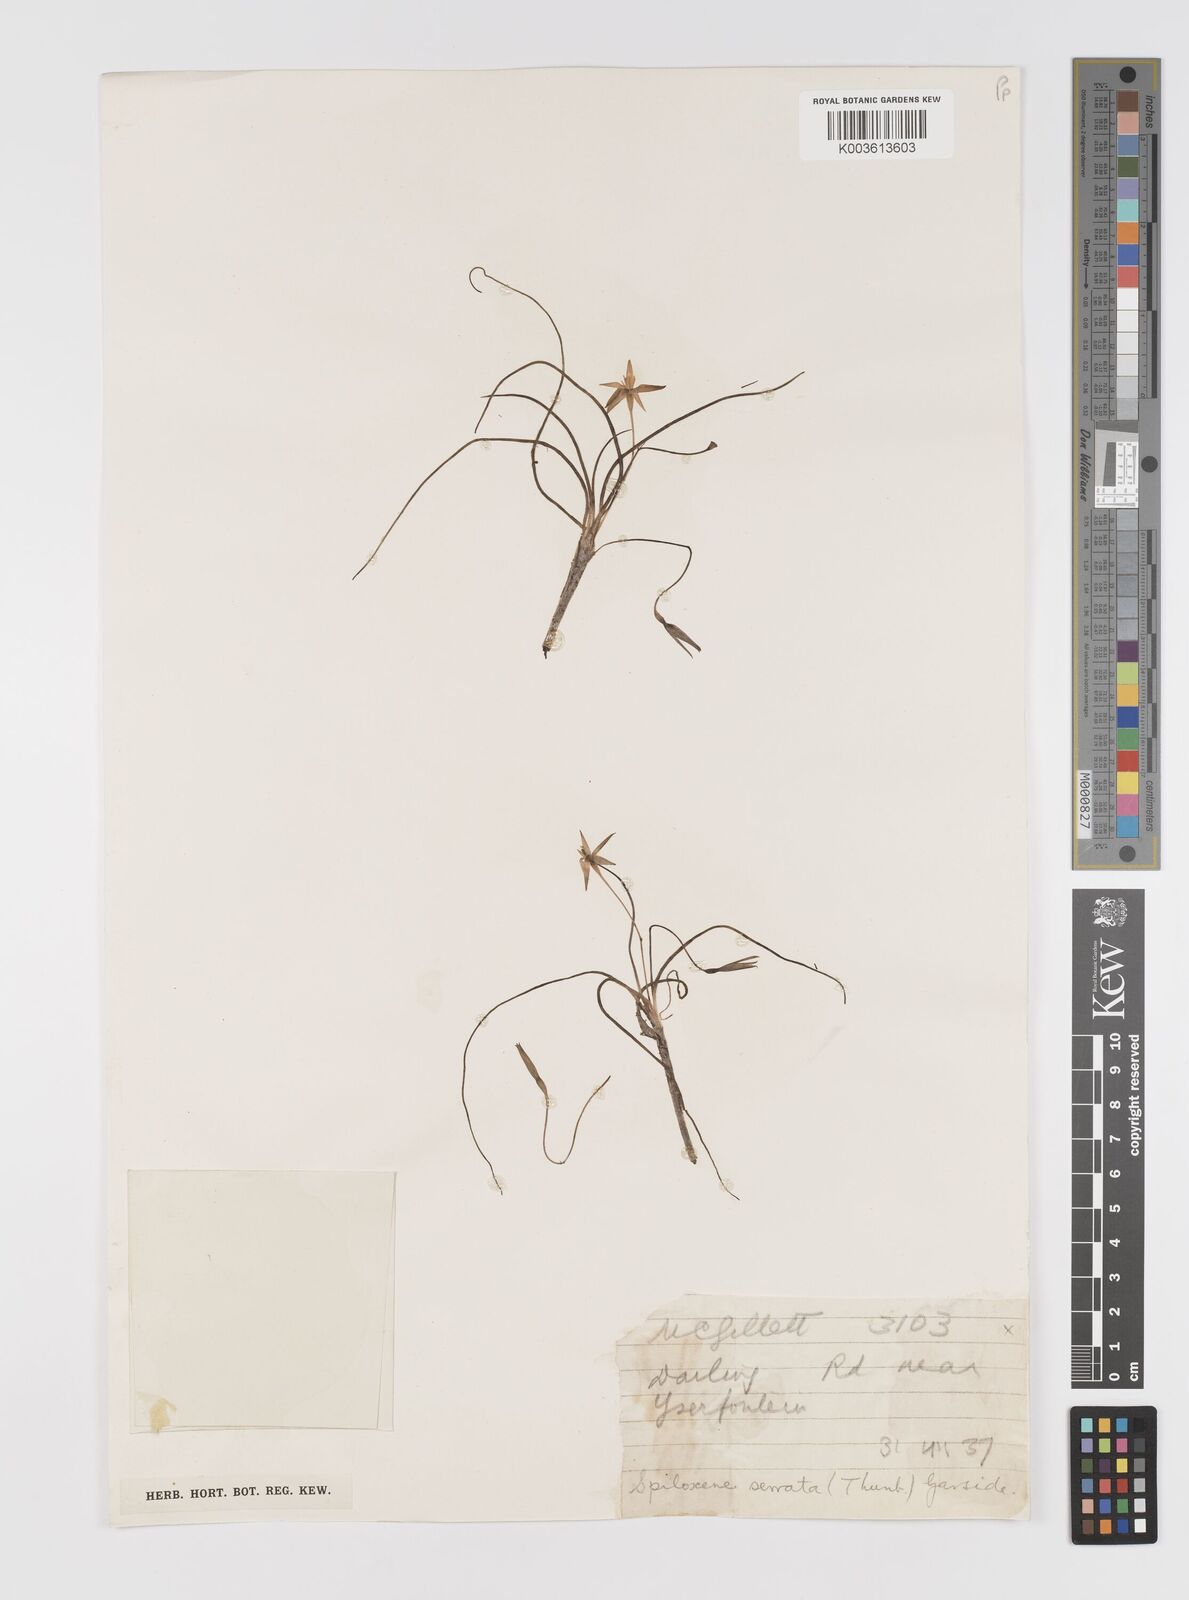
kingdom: Plantae
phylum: Tracheophyta
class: Liliopsida
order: Asparagales
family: Hypoxidaceae
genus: Pauridia
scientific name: Pauridia serrata
